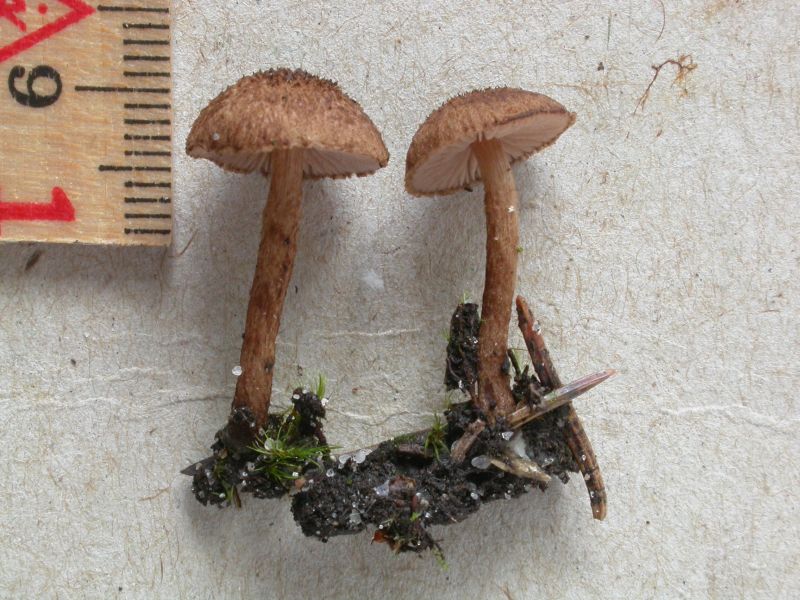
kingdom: Fungi
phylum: Basidiomycota
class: Agaricomycetes
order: Agaricales
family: Inocybaceae
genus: Inocybe
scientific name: Inocybe lanuginosa
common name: uldskællet trævlhat
